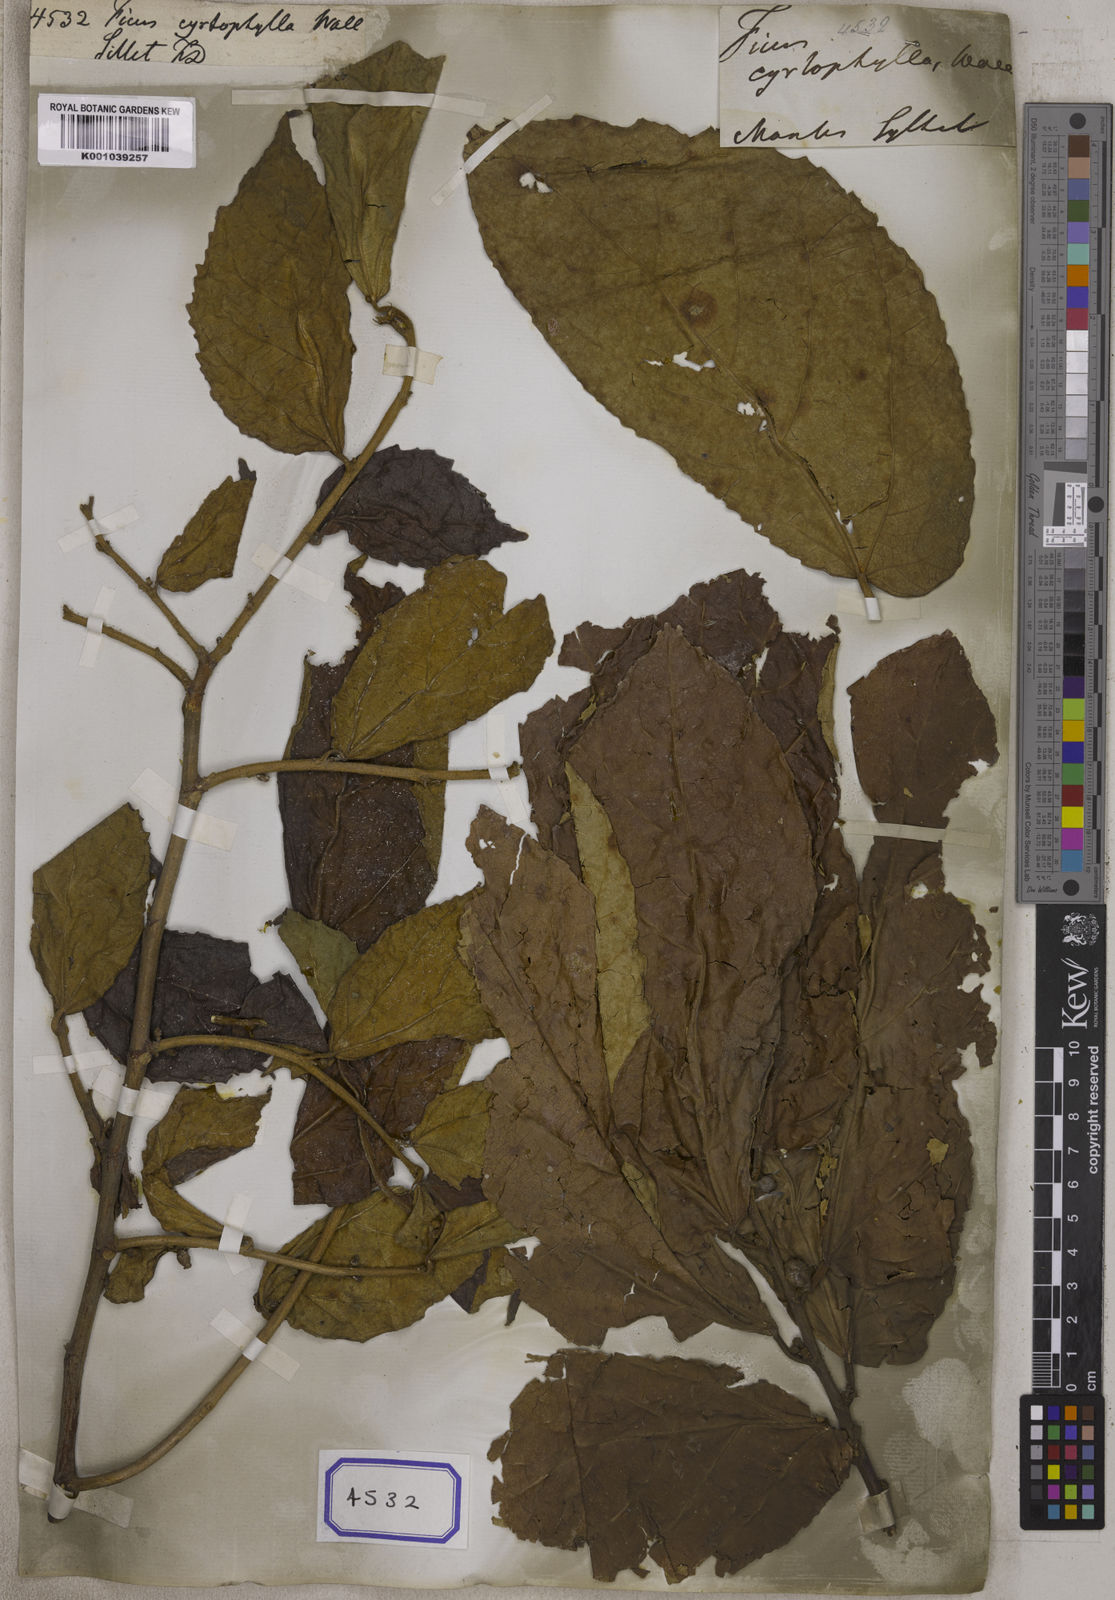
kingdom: Plantae
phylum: Tracheophyta
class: Magnoliopsida
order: Rosales
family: Moraceae
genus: Ficus
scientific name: Ficus
